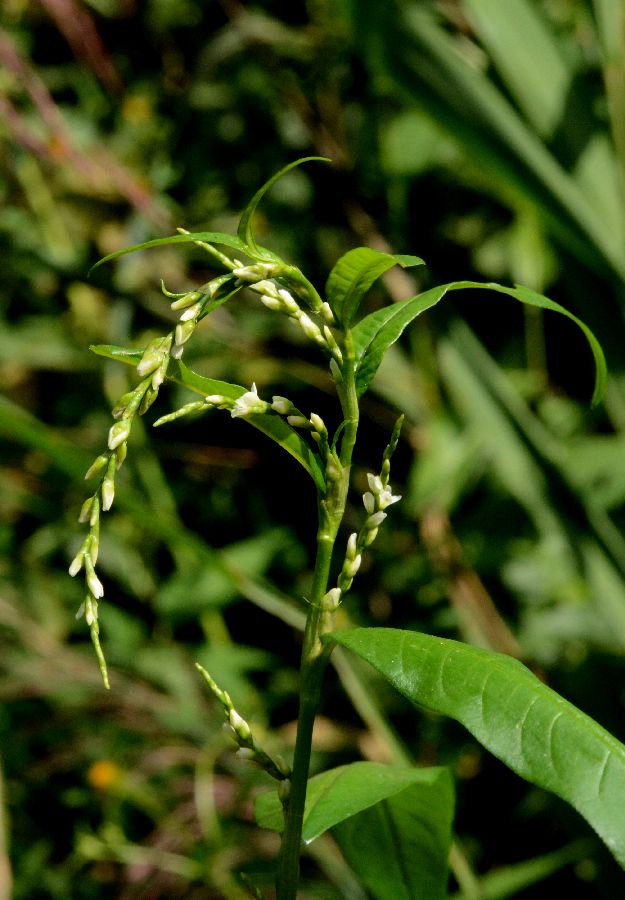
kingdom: Plantae
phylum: Tracheophyta
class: Magnoliopsida
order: Caryophyllales
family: Polygonaceae
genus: Persicaria
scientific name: Persicaria hydropiper
